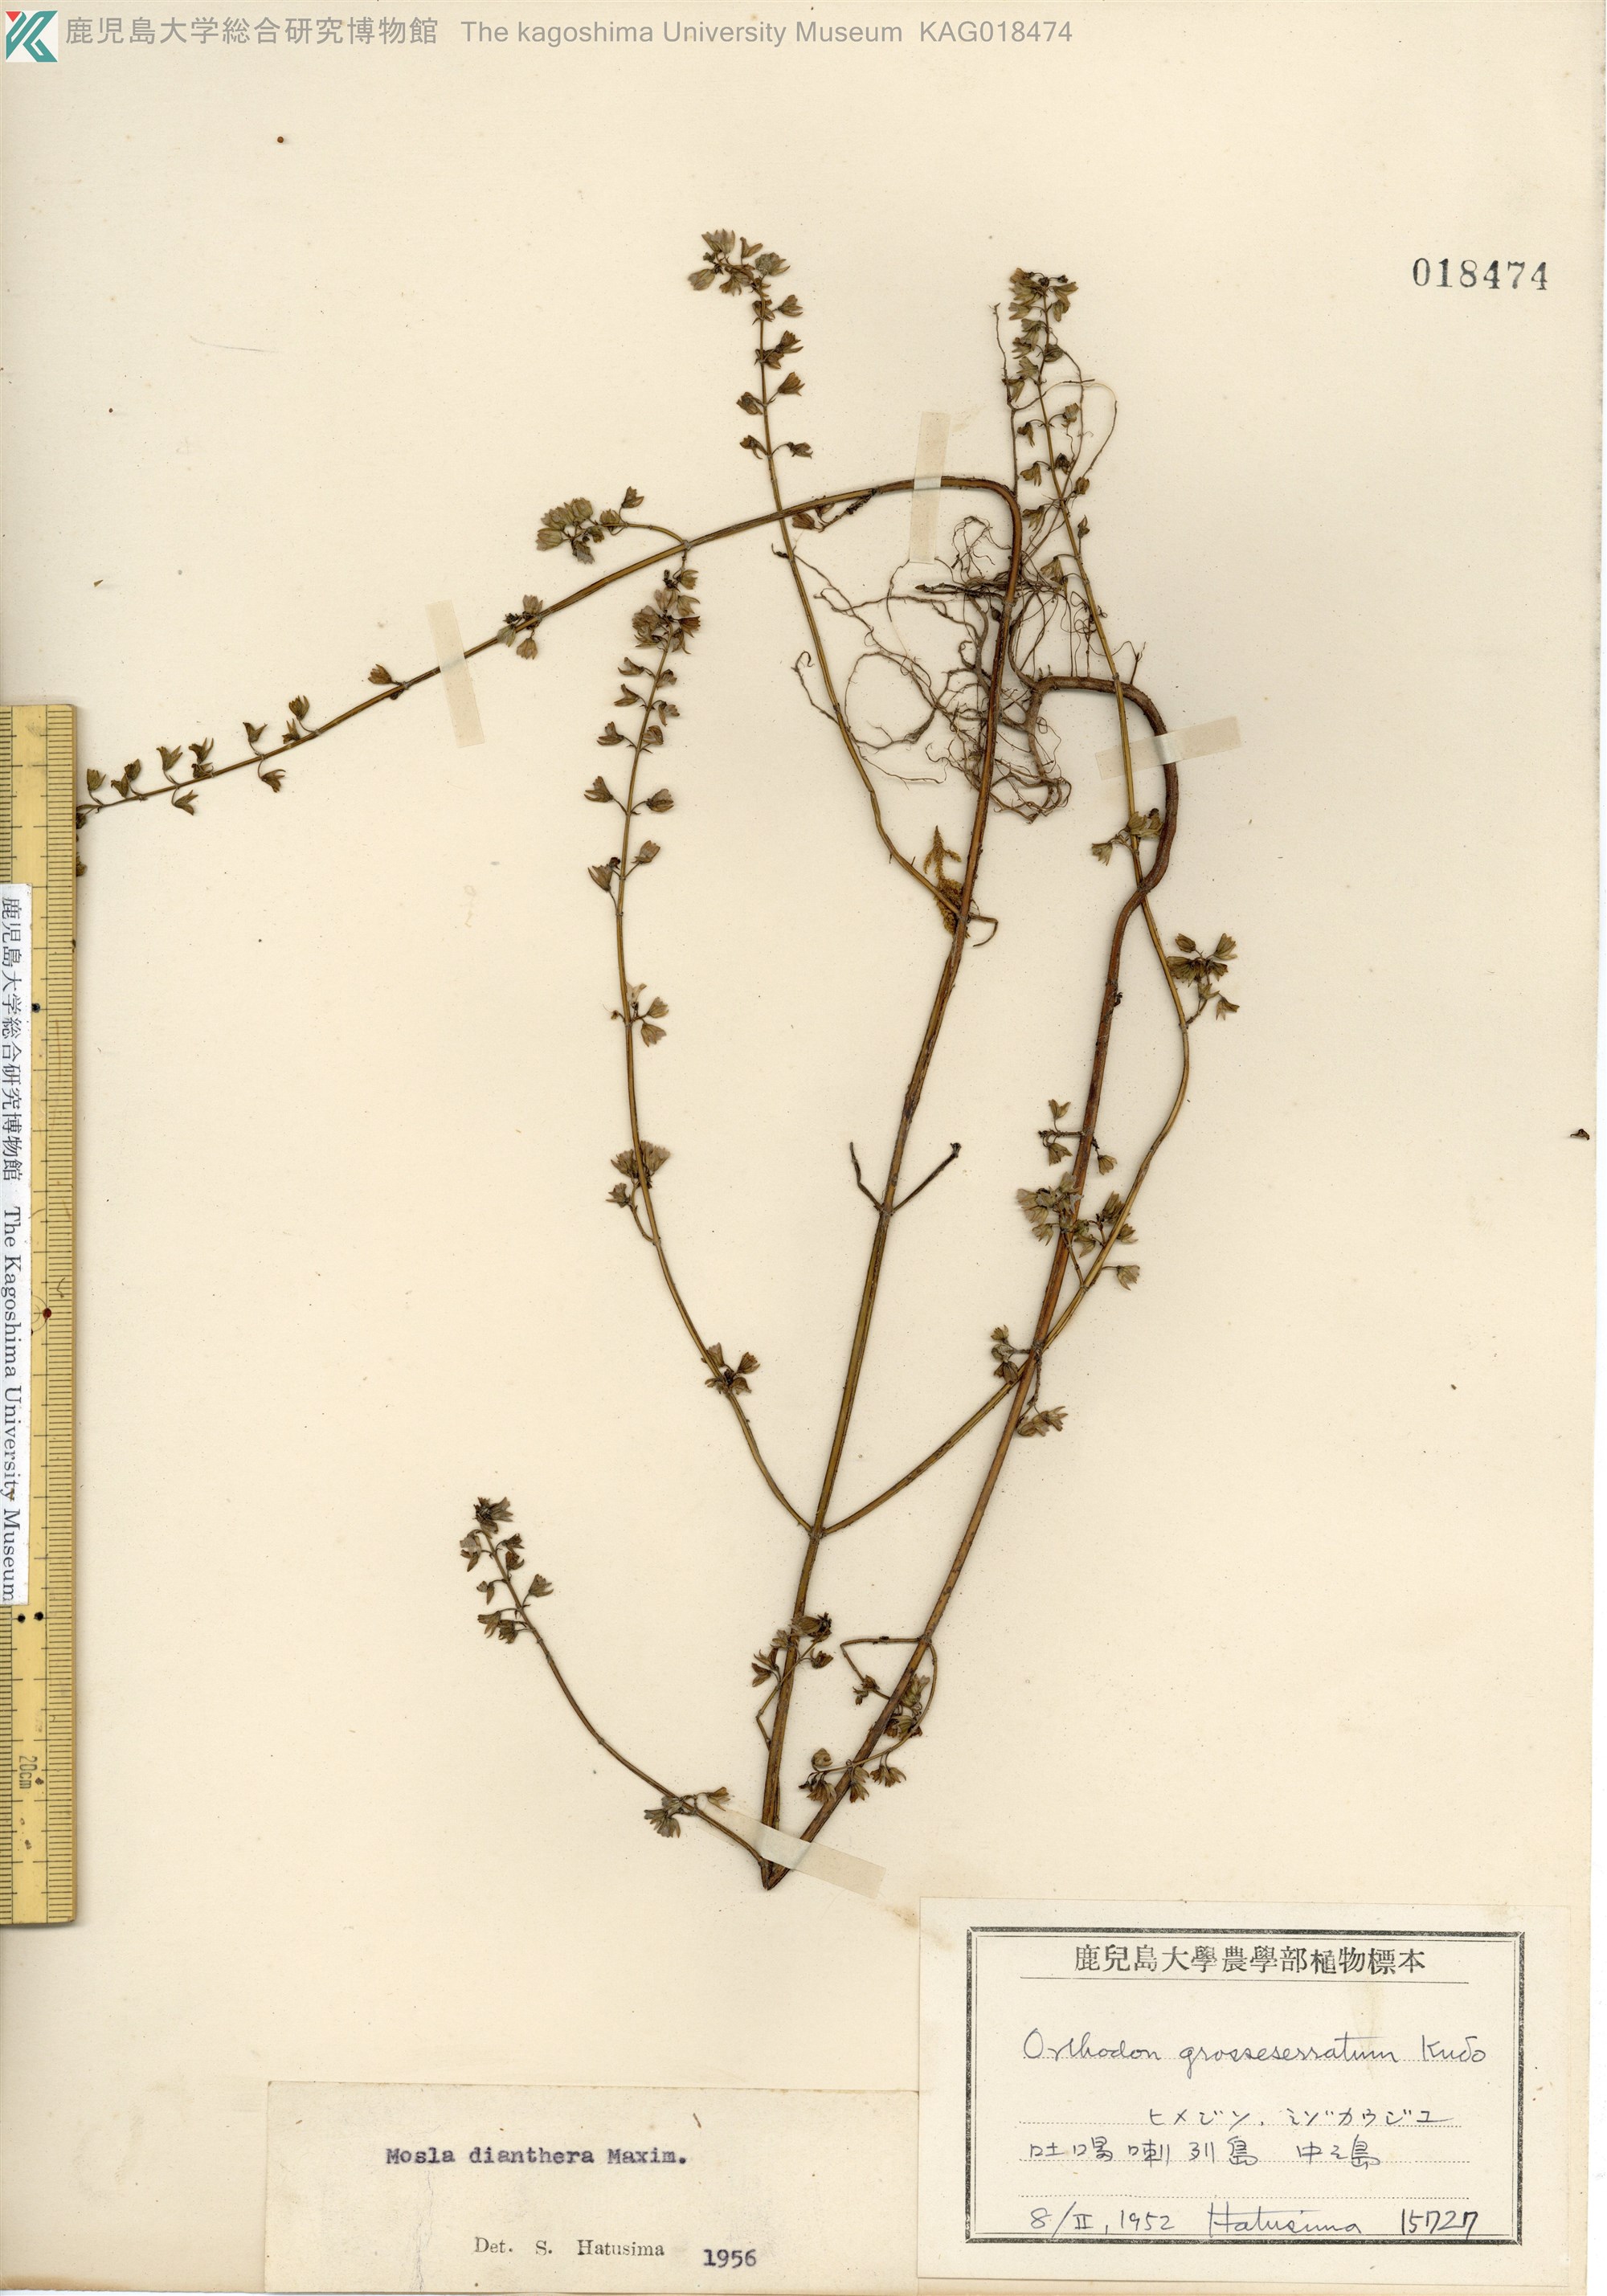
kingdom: Plantae
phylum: Tracheophyta
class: Magnoliopsida
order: Lamiales
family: Lamiaceae
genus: Mosla
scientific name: Mosla dianthera
